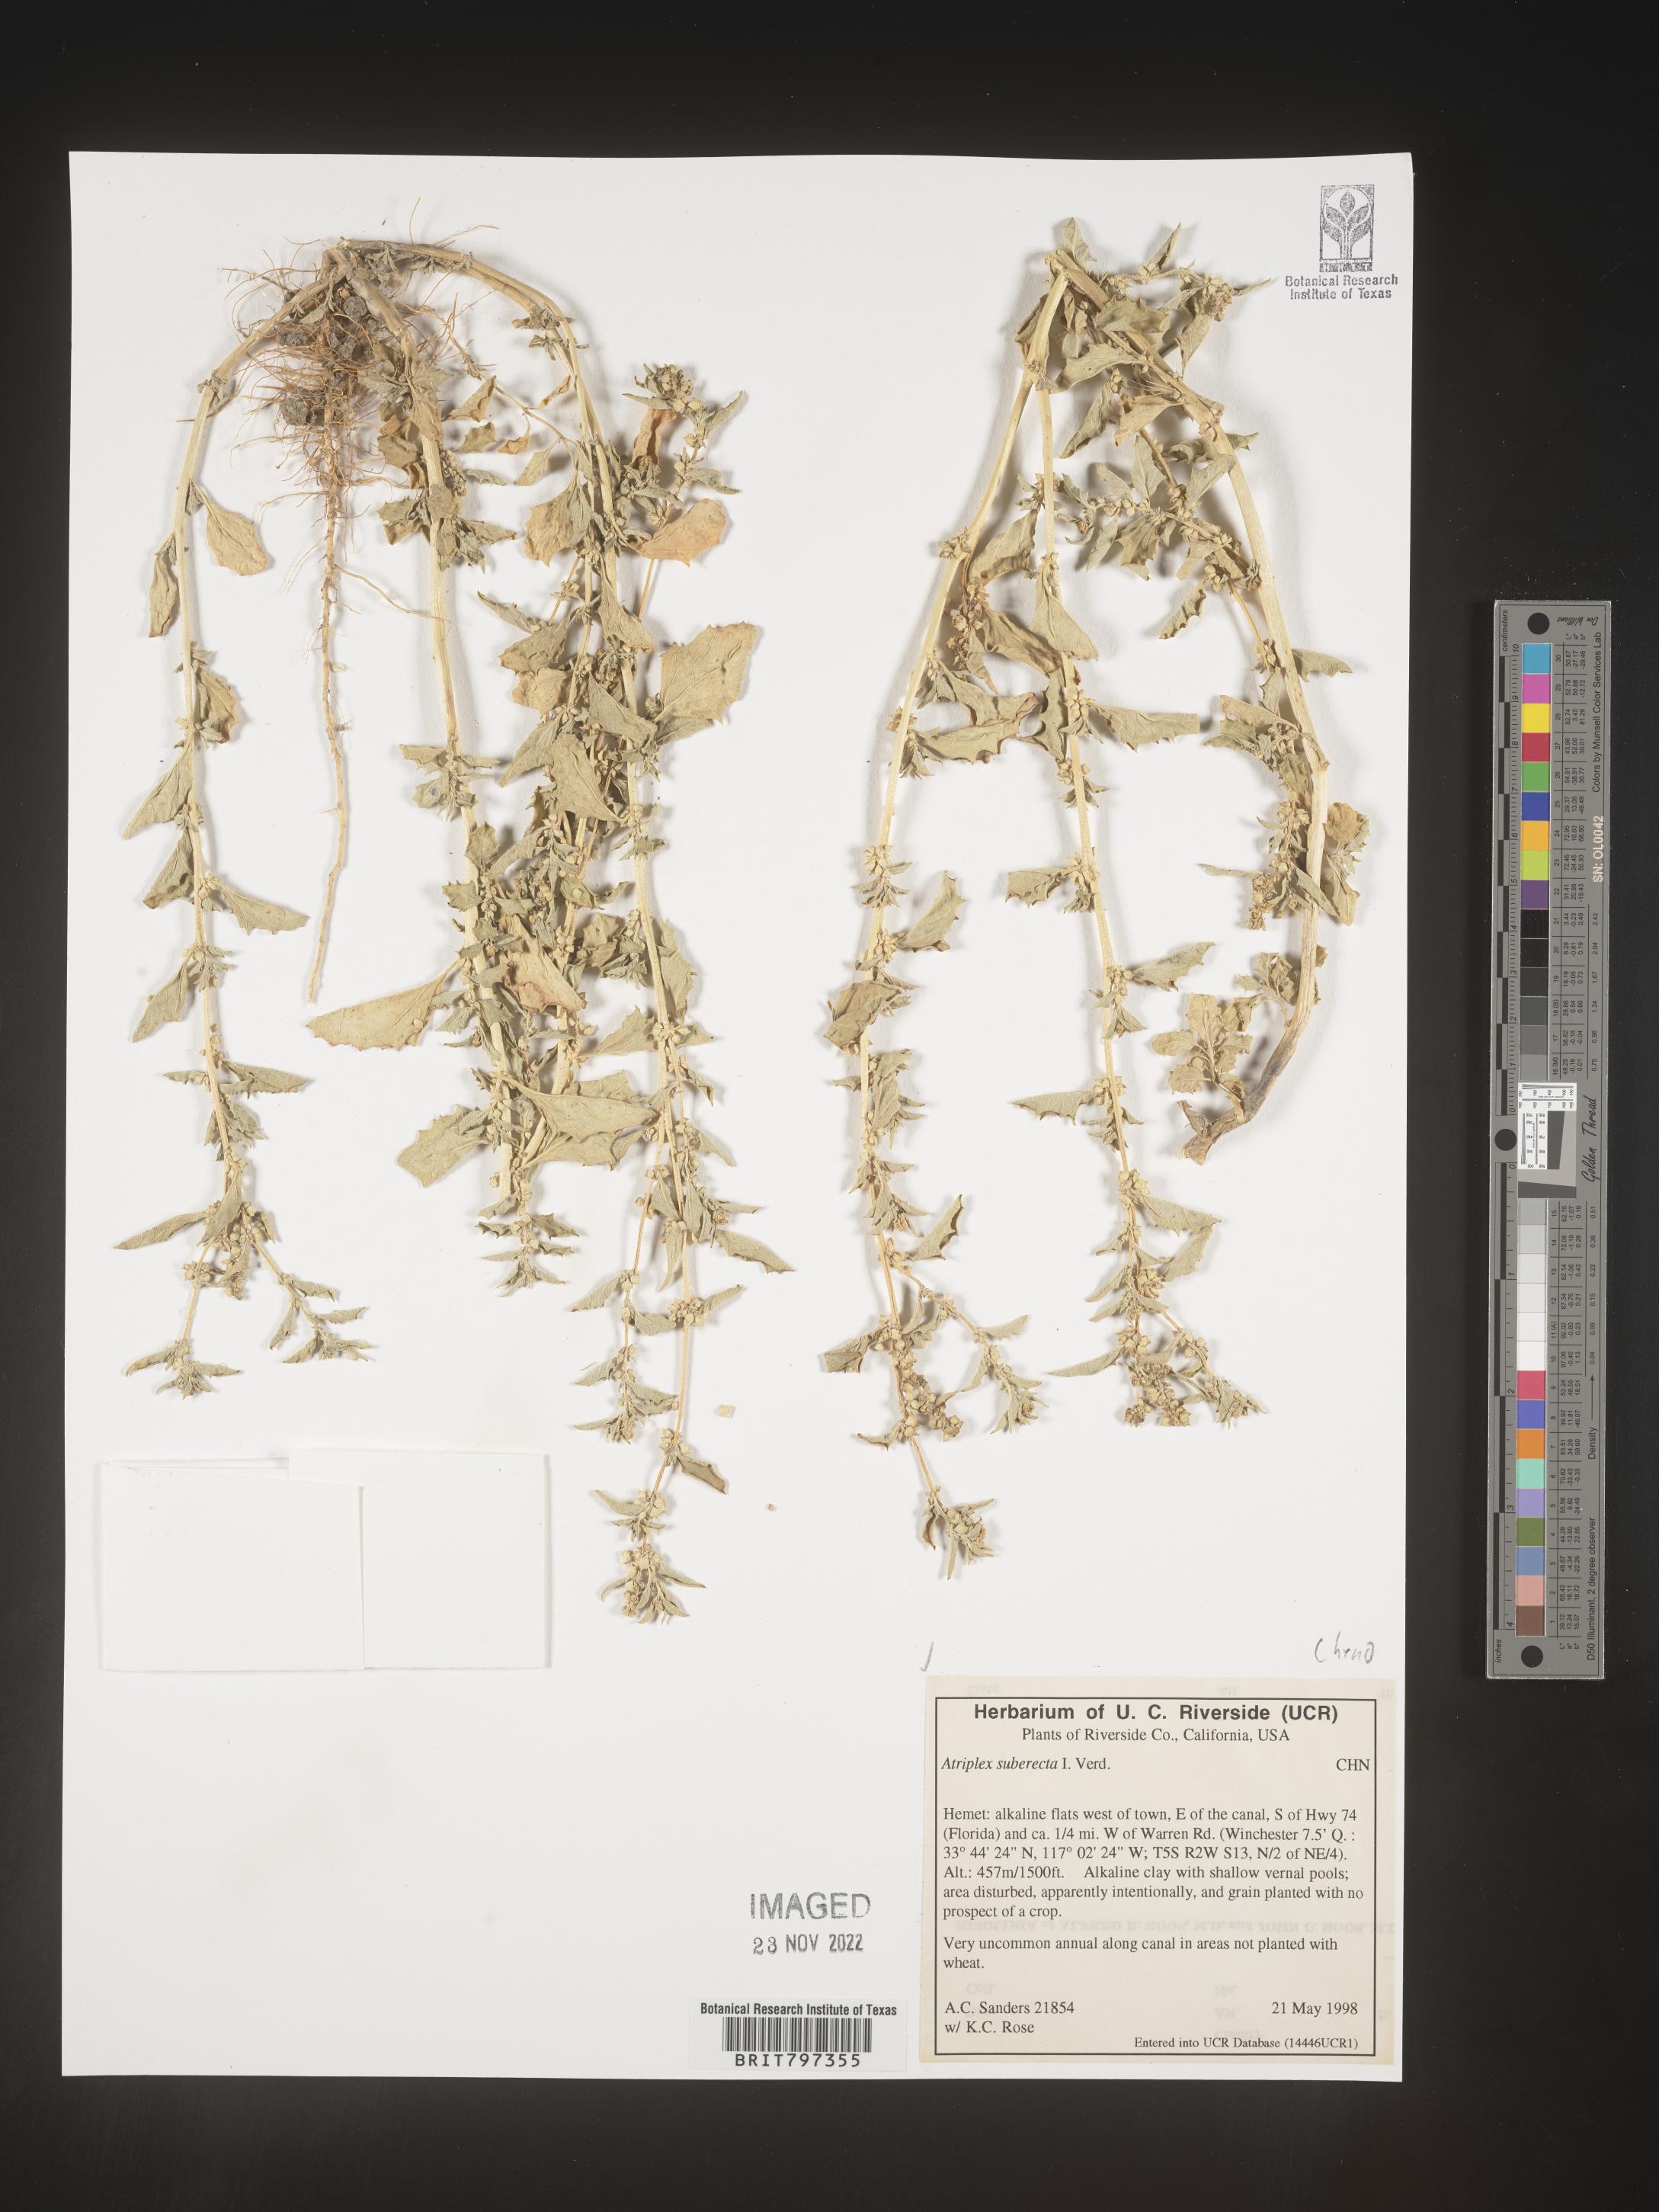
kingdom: Plantae
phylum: Tracheophyta
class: Magnoliopsida
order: Caryophyllales
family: Amaranthaceae
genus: Atriplex
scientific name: Atriplex
